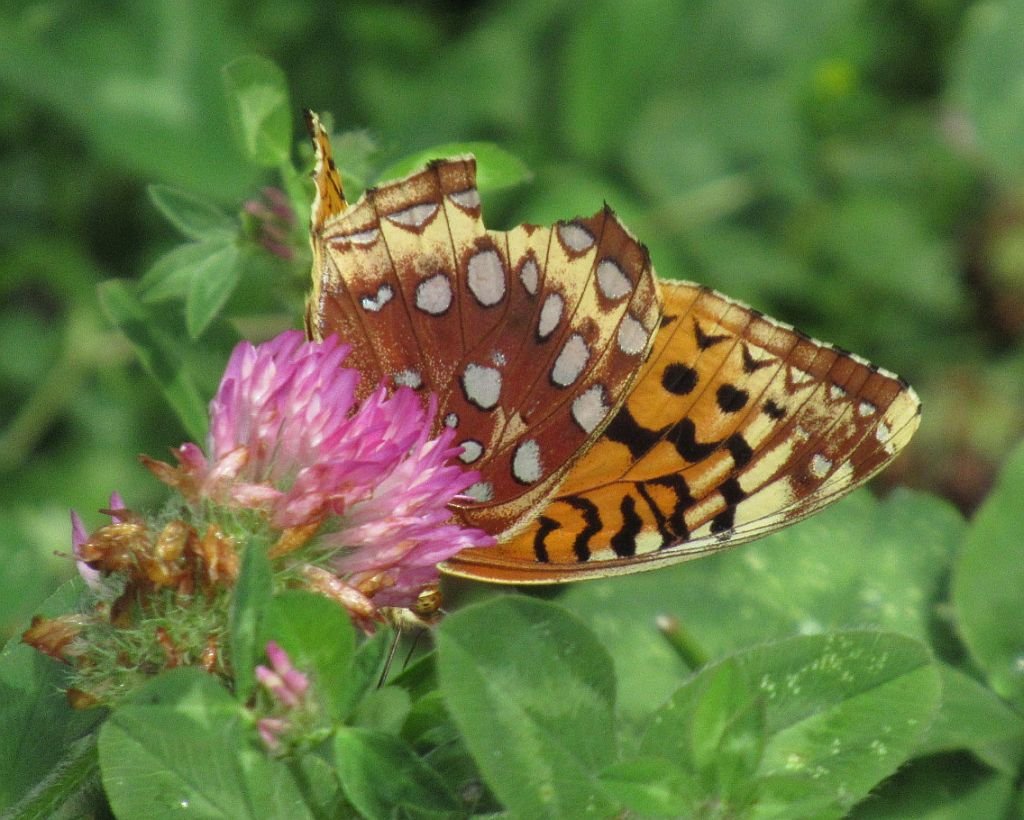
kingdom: Animalia
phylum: Arthropoda
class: Insecta
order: Lepidoptera
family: Nymphalidae
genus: Speyeria
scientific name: Speyeria cybele
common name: Great Spangled Fritillary
